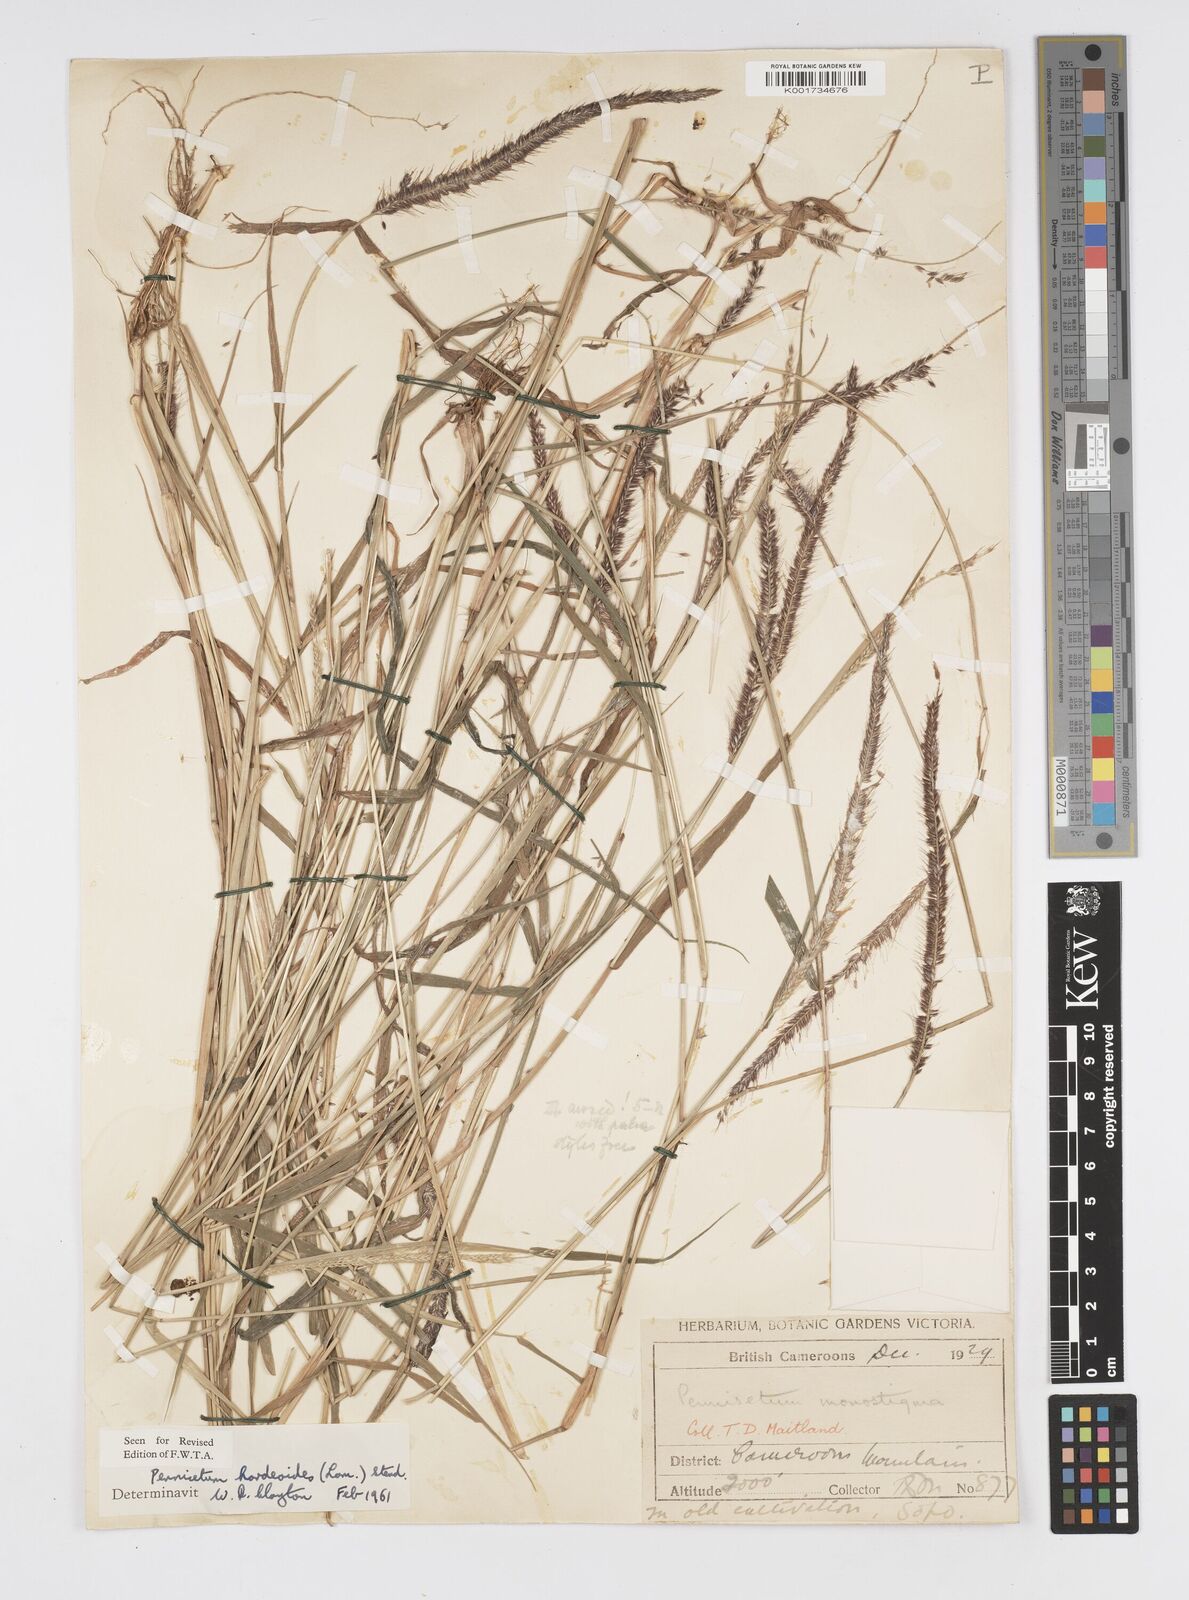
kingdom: Plantae
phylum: Tracheophyta
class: Liliopsida
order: Poales
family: Poaceae
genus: Cenchrus
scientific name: Cenchrus hordeoides
